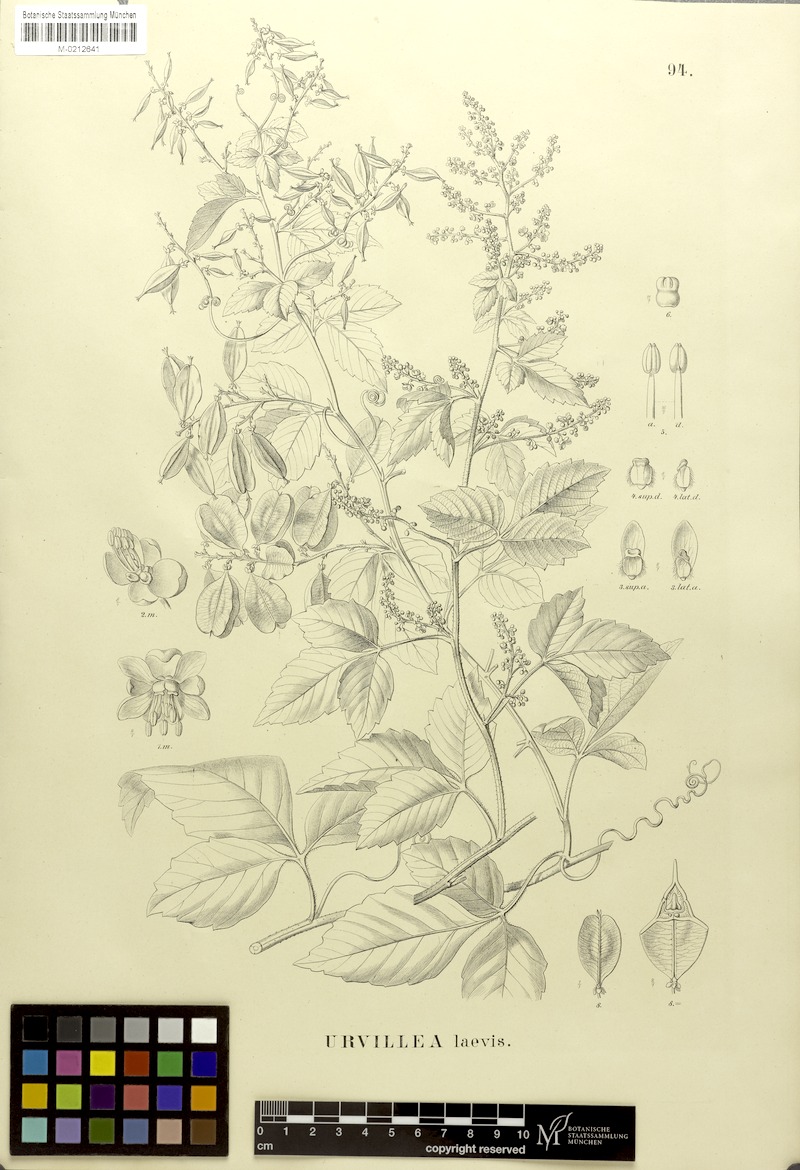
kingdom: Plantae
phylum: Tracheophyta
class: Magnoliopsida
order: Sapindales
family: Sapindaceae
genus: Urvillea
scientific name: Urvillea laevis
